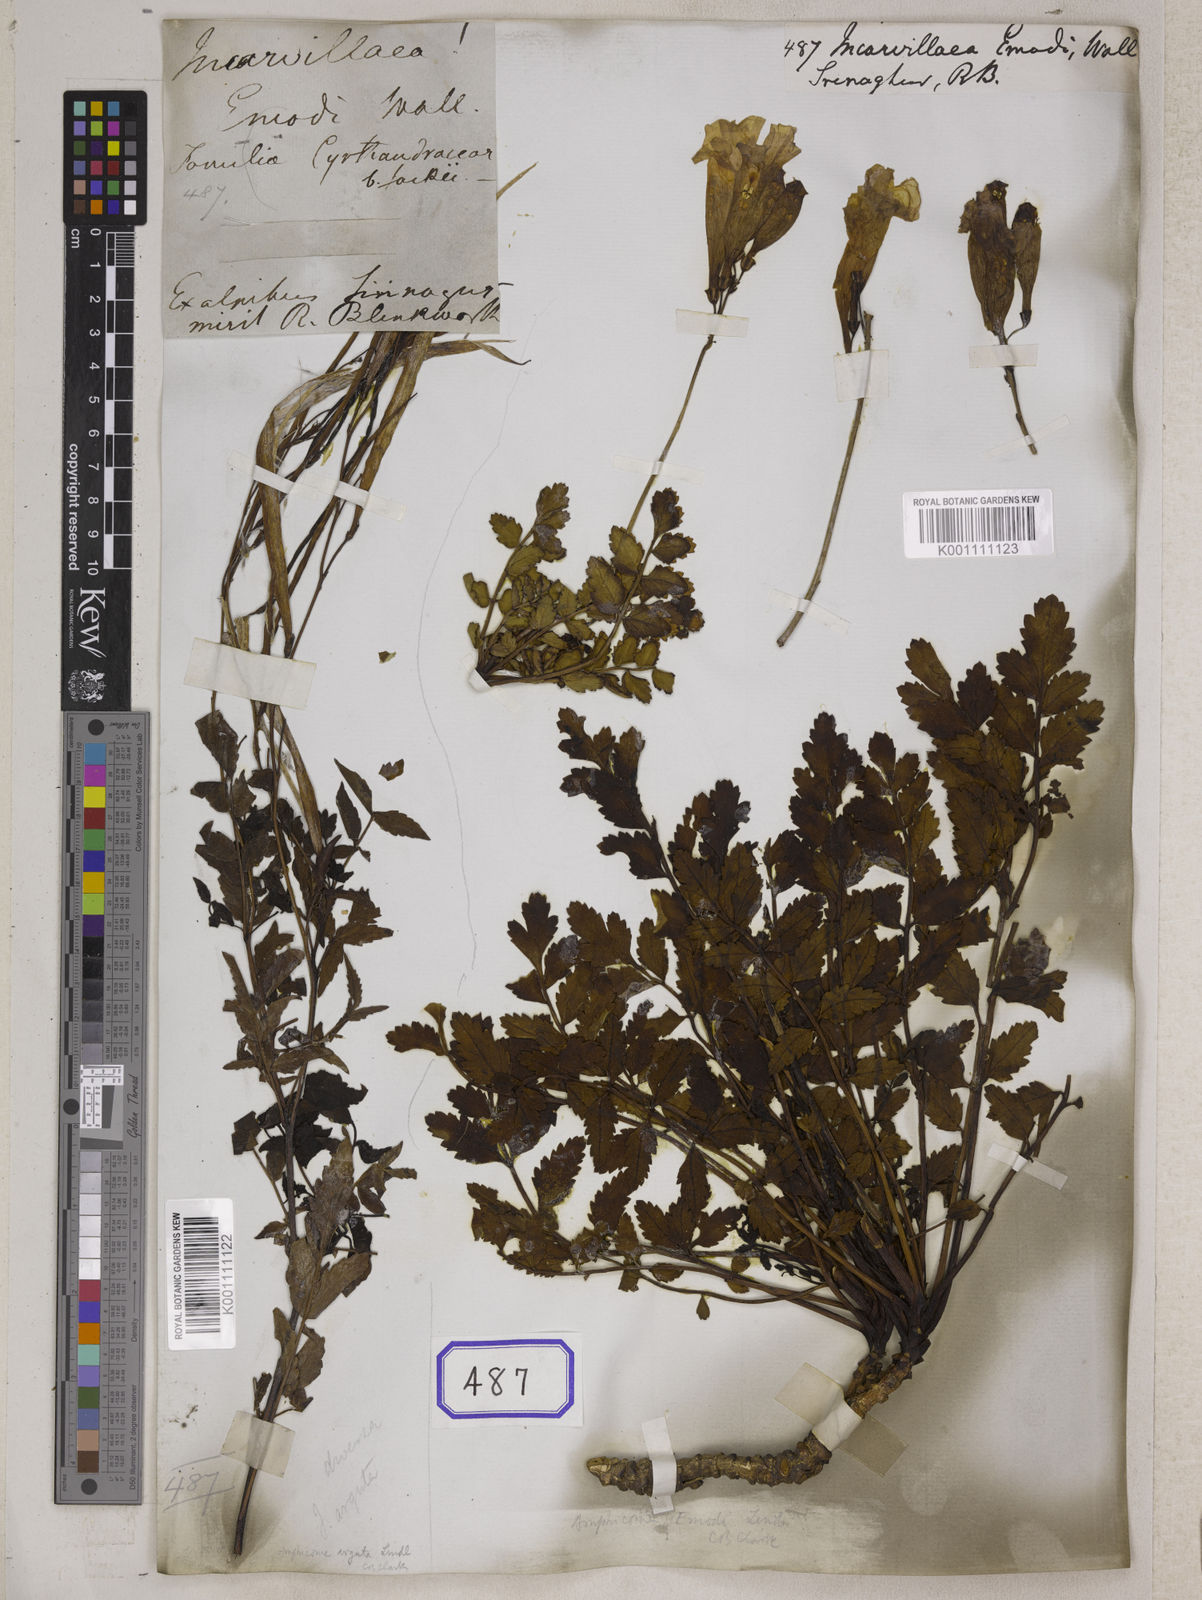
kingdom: Plantae
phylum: Tracheophyta
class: Magnoliopsida
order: Lamiales
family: Bignoniaceae
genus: Incarvillea
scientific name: Incarvillea
